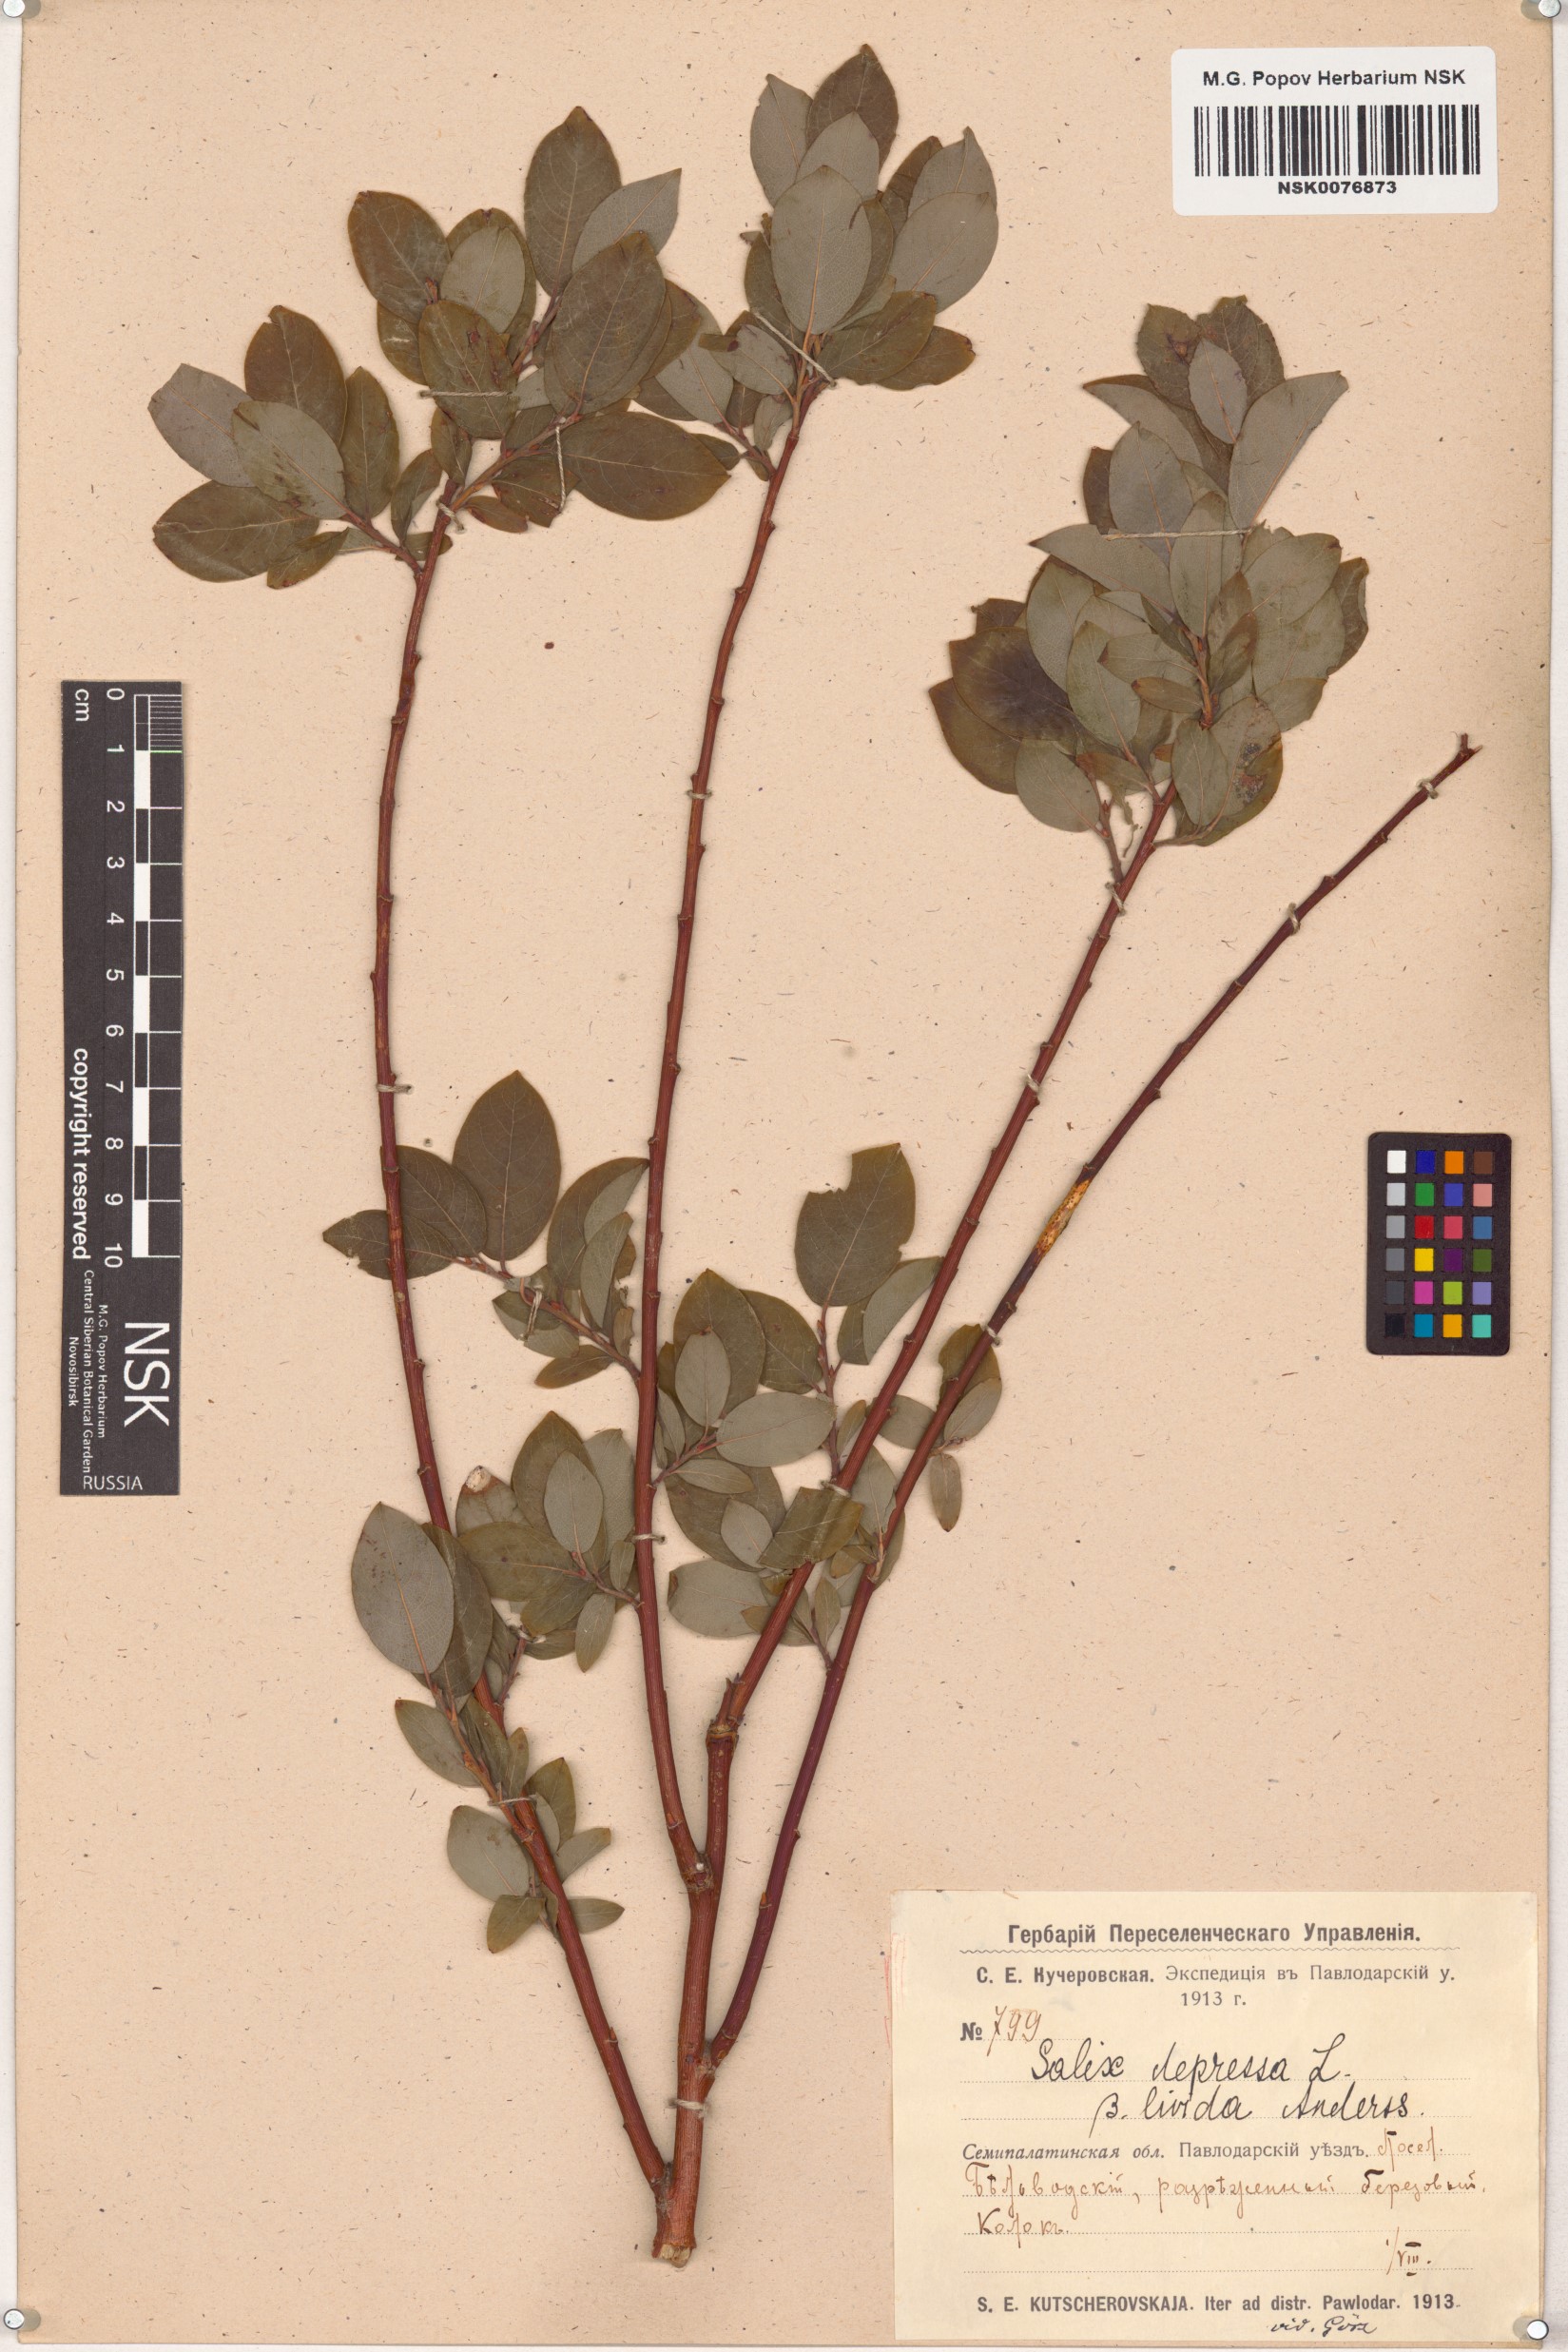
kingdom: Plantae
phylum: Tracheophyta
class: Magnoliopsida
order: Malpighiales
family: Salicaceae
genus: Salix
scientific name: Salix
